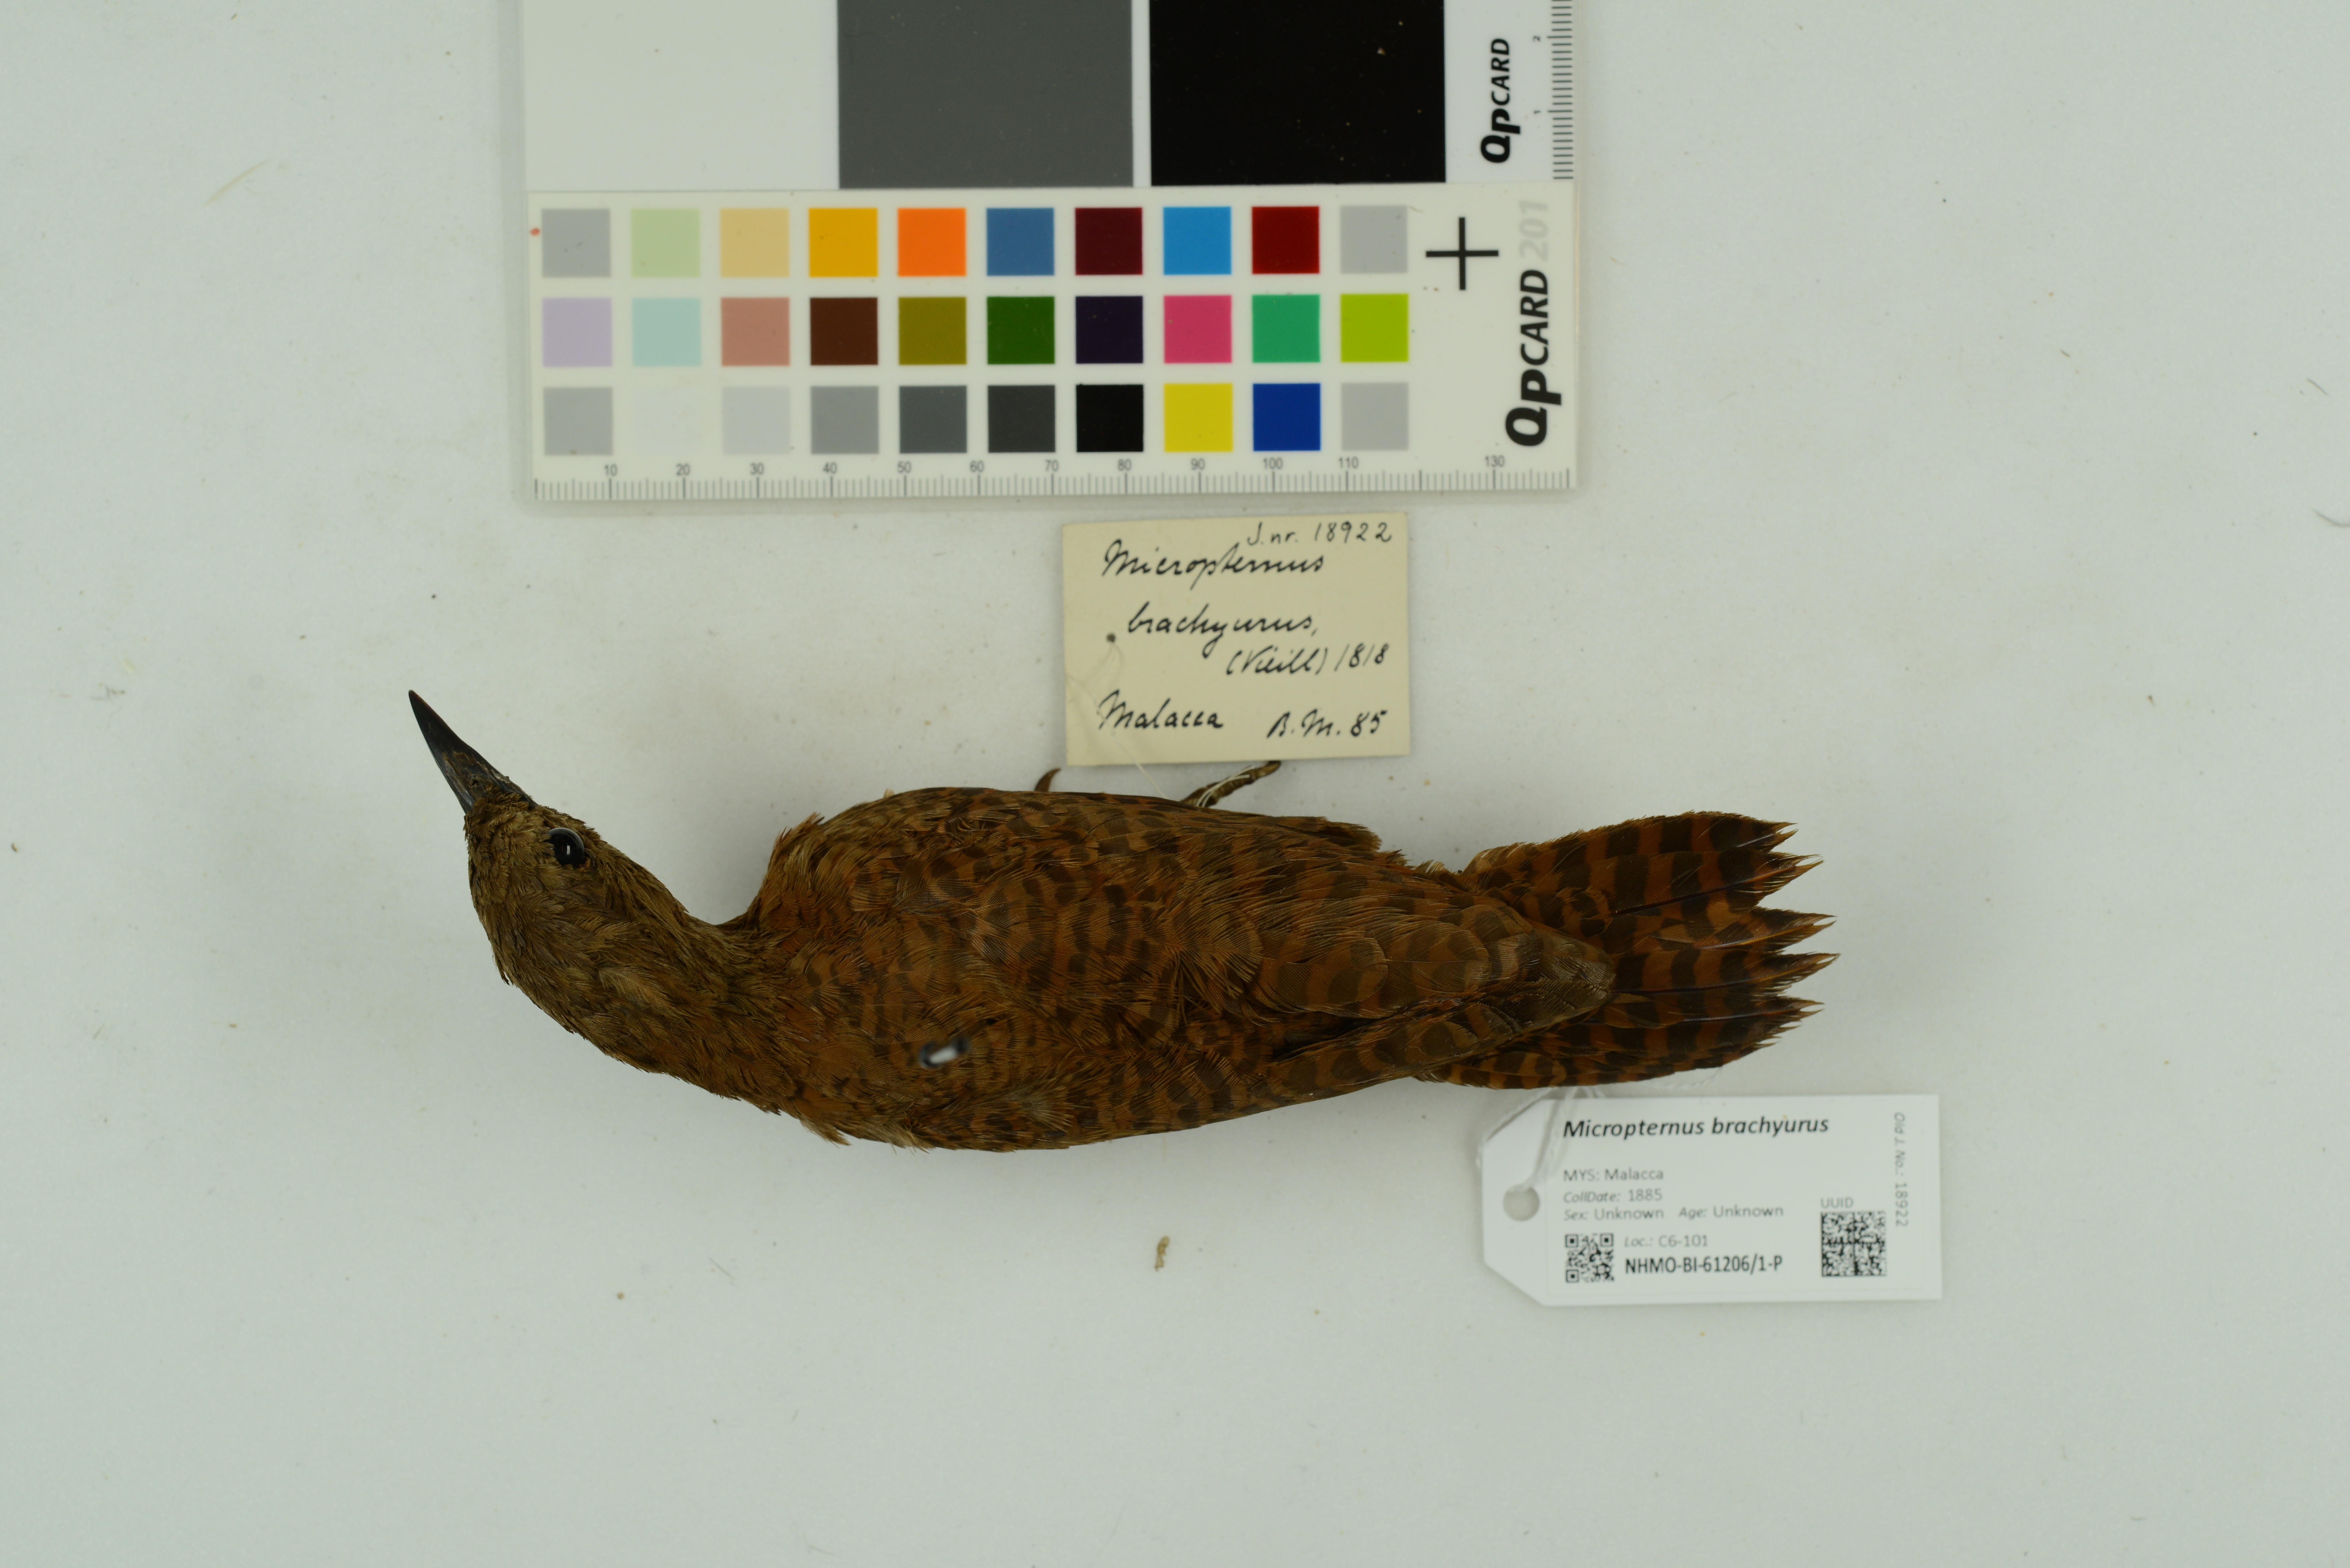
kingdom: Animalia
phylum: Chordata
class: Aves
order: Piciformes
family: Picidae
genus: Micropternus
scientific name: Micropternus brachyurus
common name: Rufous woodpecker
